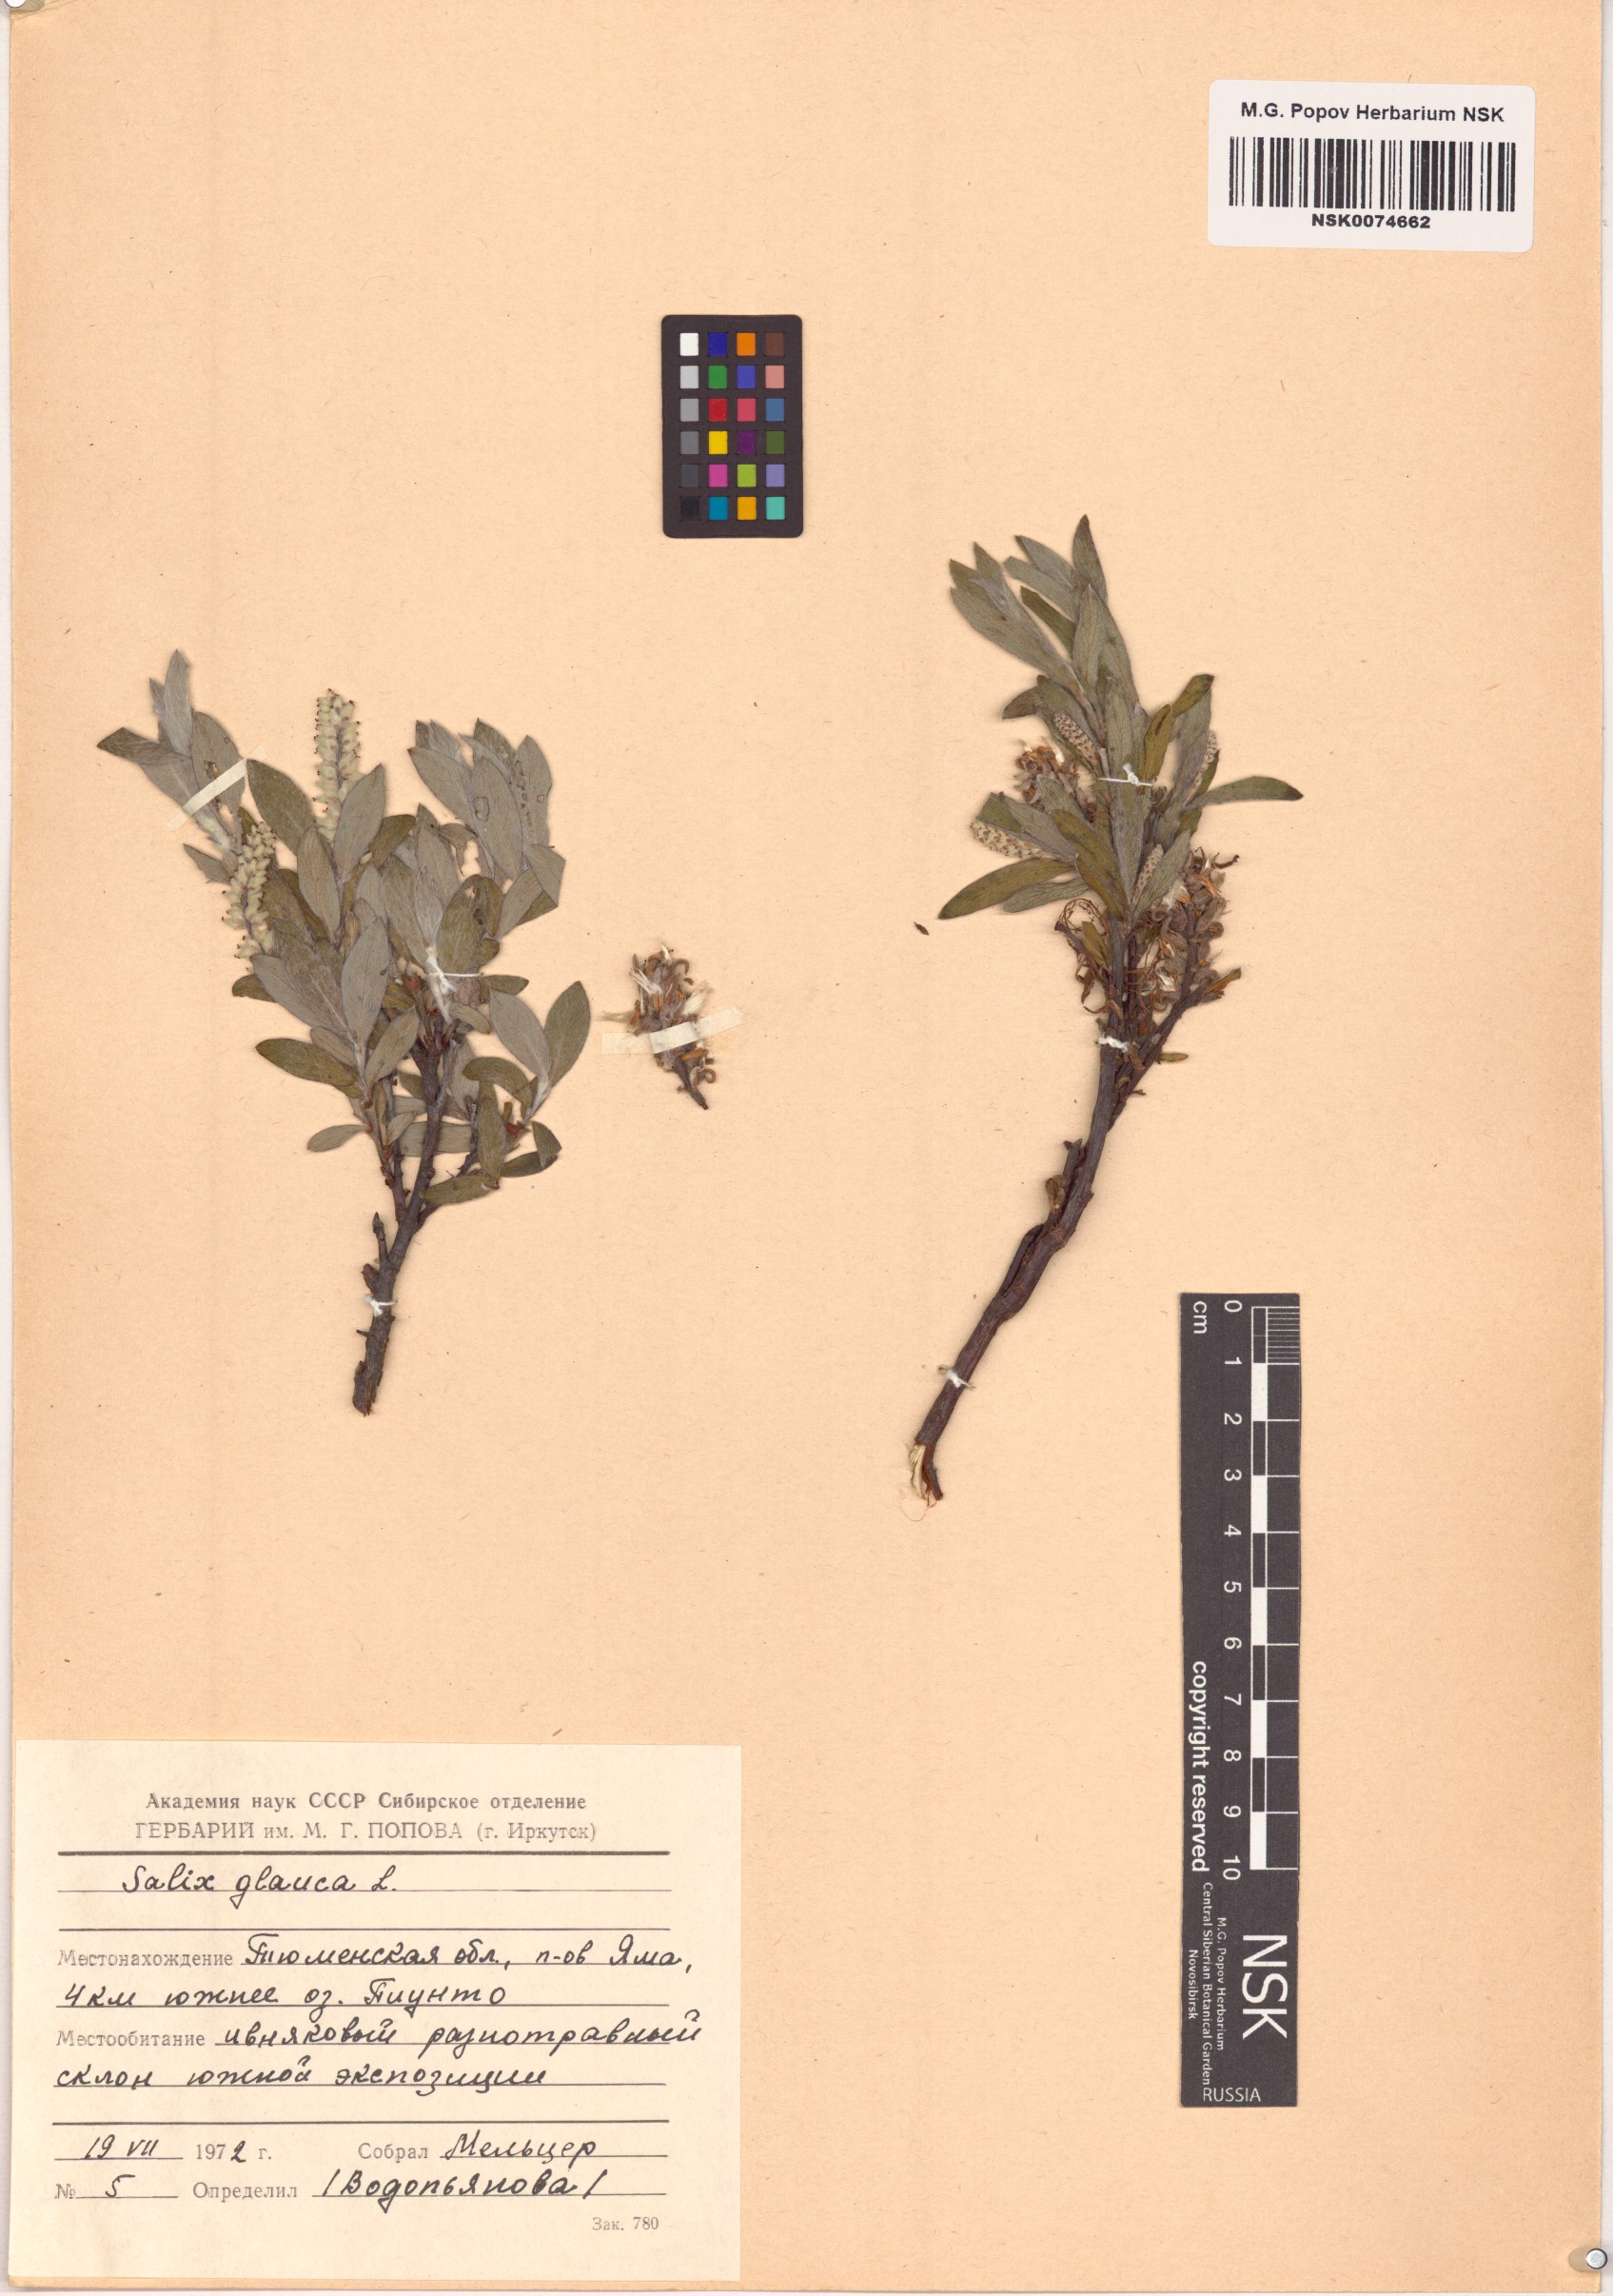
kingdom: Plantae
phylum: Tracheophyta
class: Magnoliopsida
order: Malpighiales
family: Salicaceae
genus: Salix
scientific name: Salix glauca
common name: Glaucous willow
